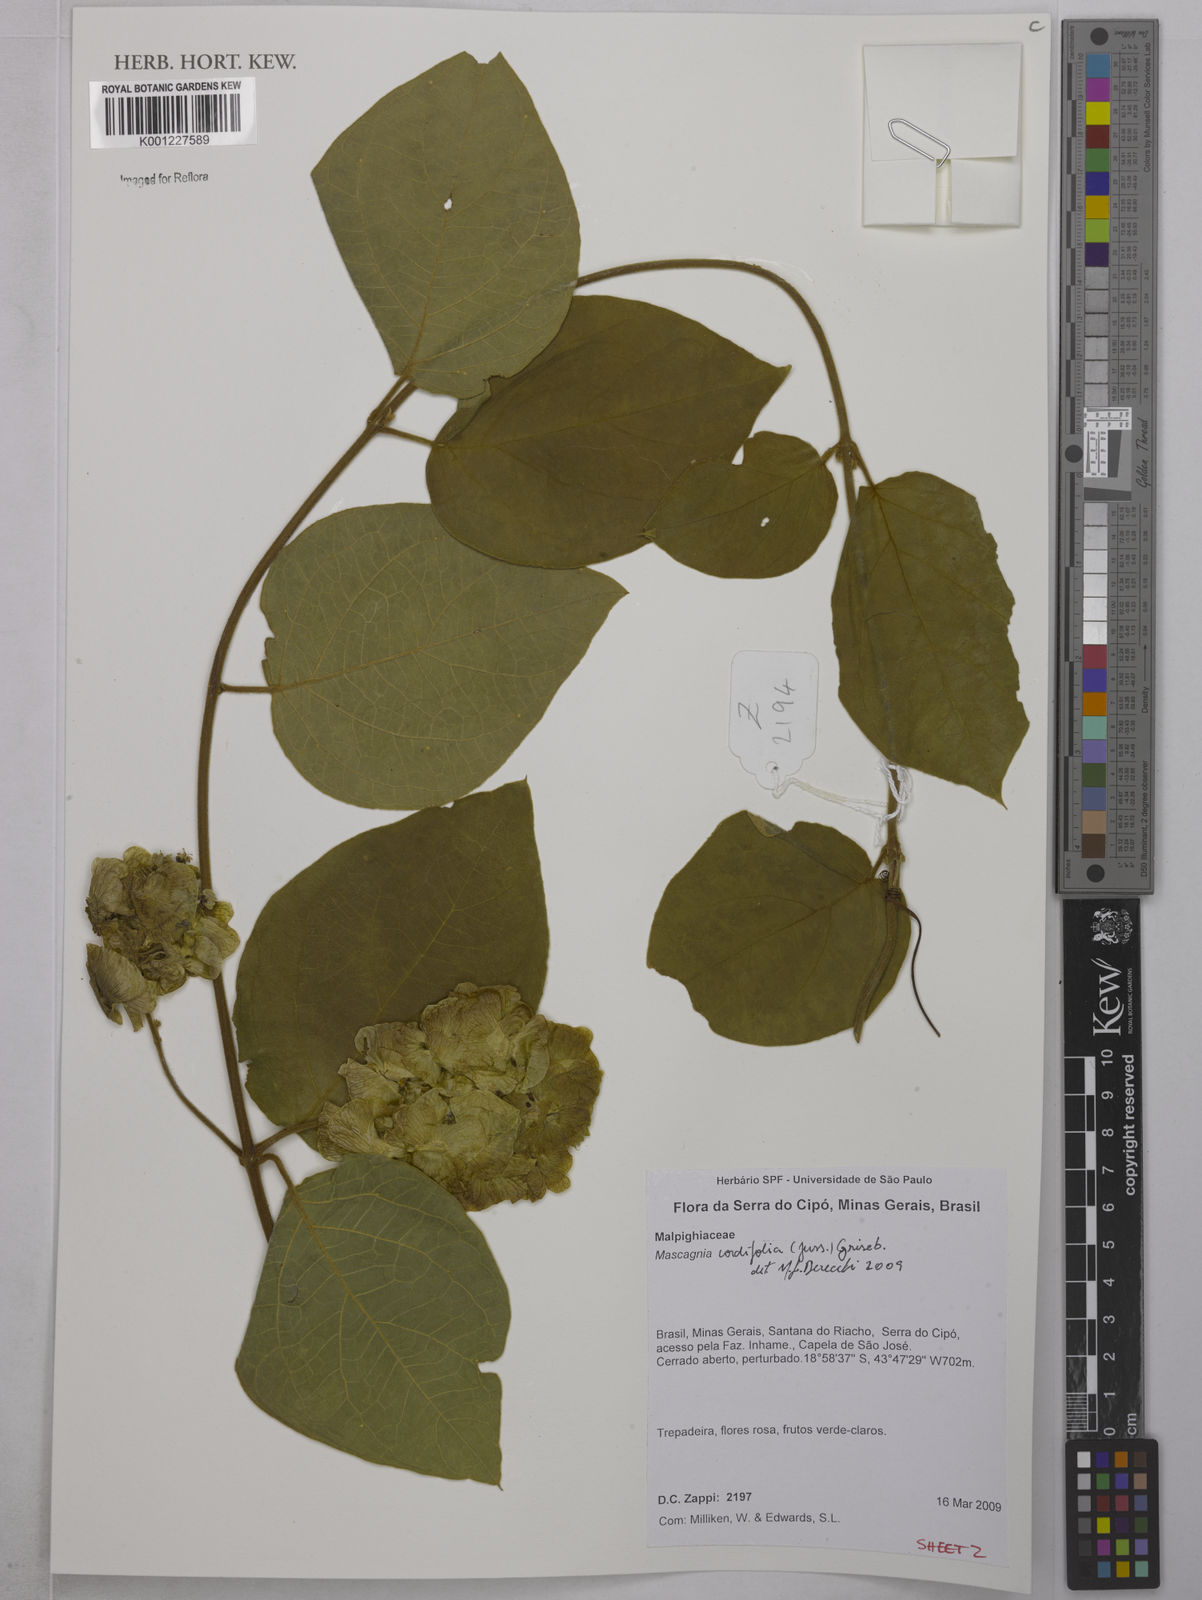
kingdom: Plantae
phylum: Tracheophyta
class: Magnoliopsida
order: Malpighiales
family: Malpighiaceae
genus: Mascagnia
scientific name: Mascagnia cordifolia
